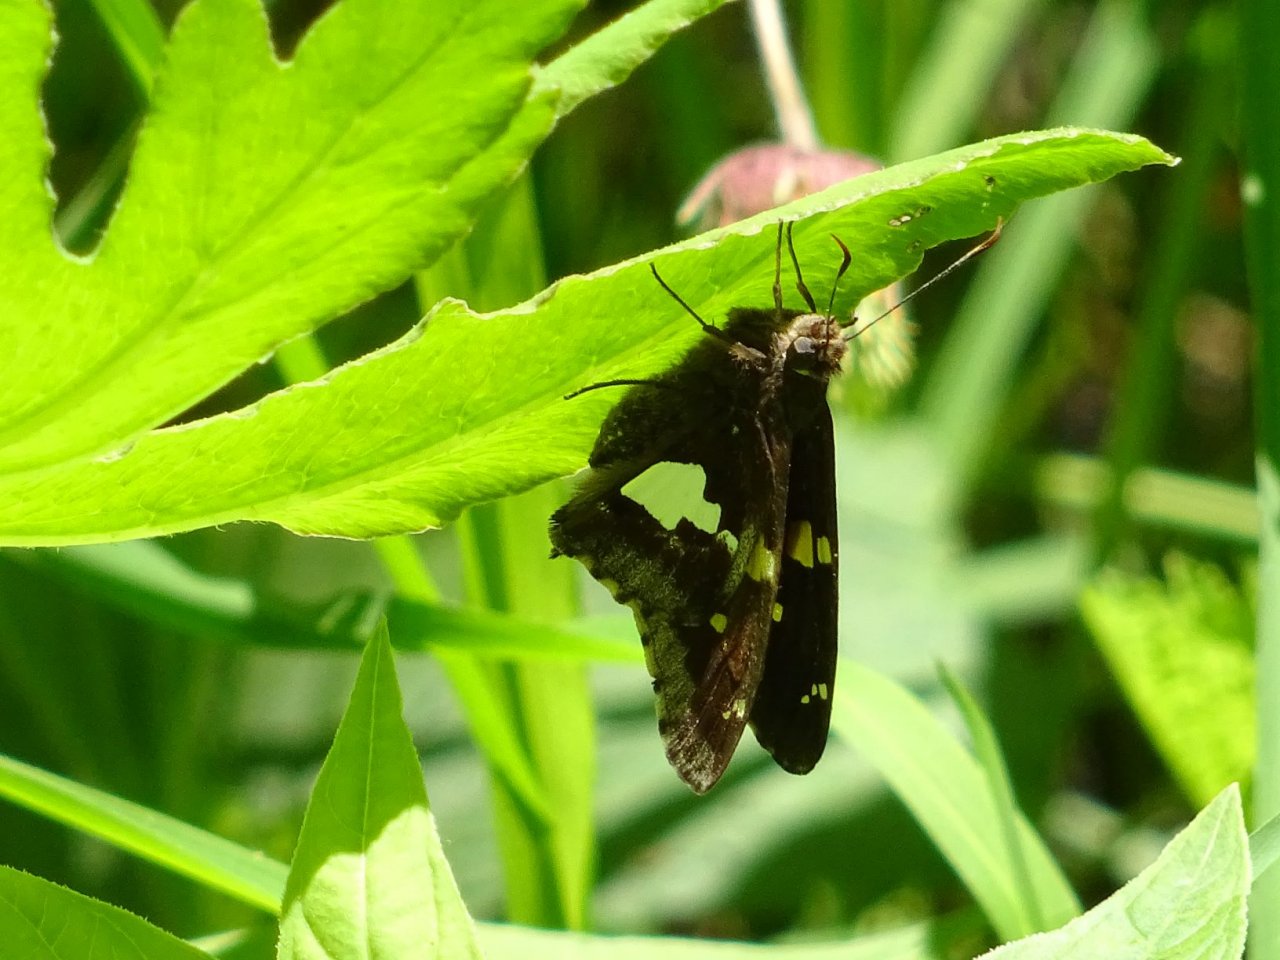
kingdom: Animalia
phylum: Arthropoda
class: Insecta
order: Lepidoptera
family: Hesperiidae
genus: Epargyreus
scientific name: Epargyreus clarus
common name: Silver-spotted Skipper
